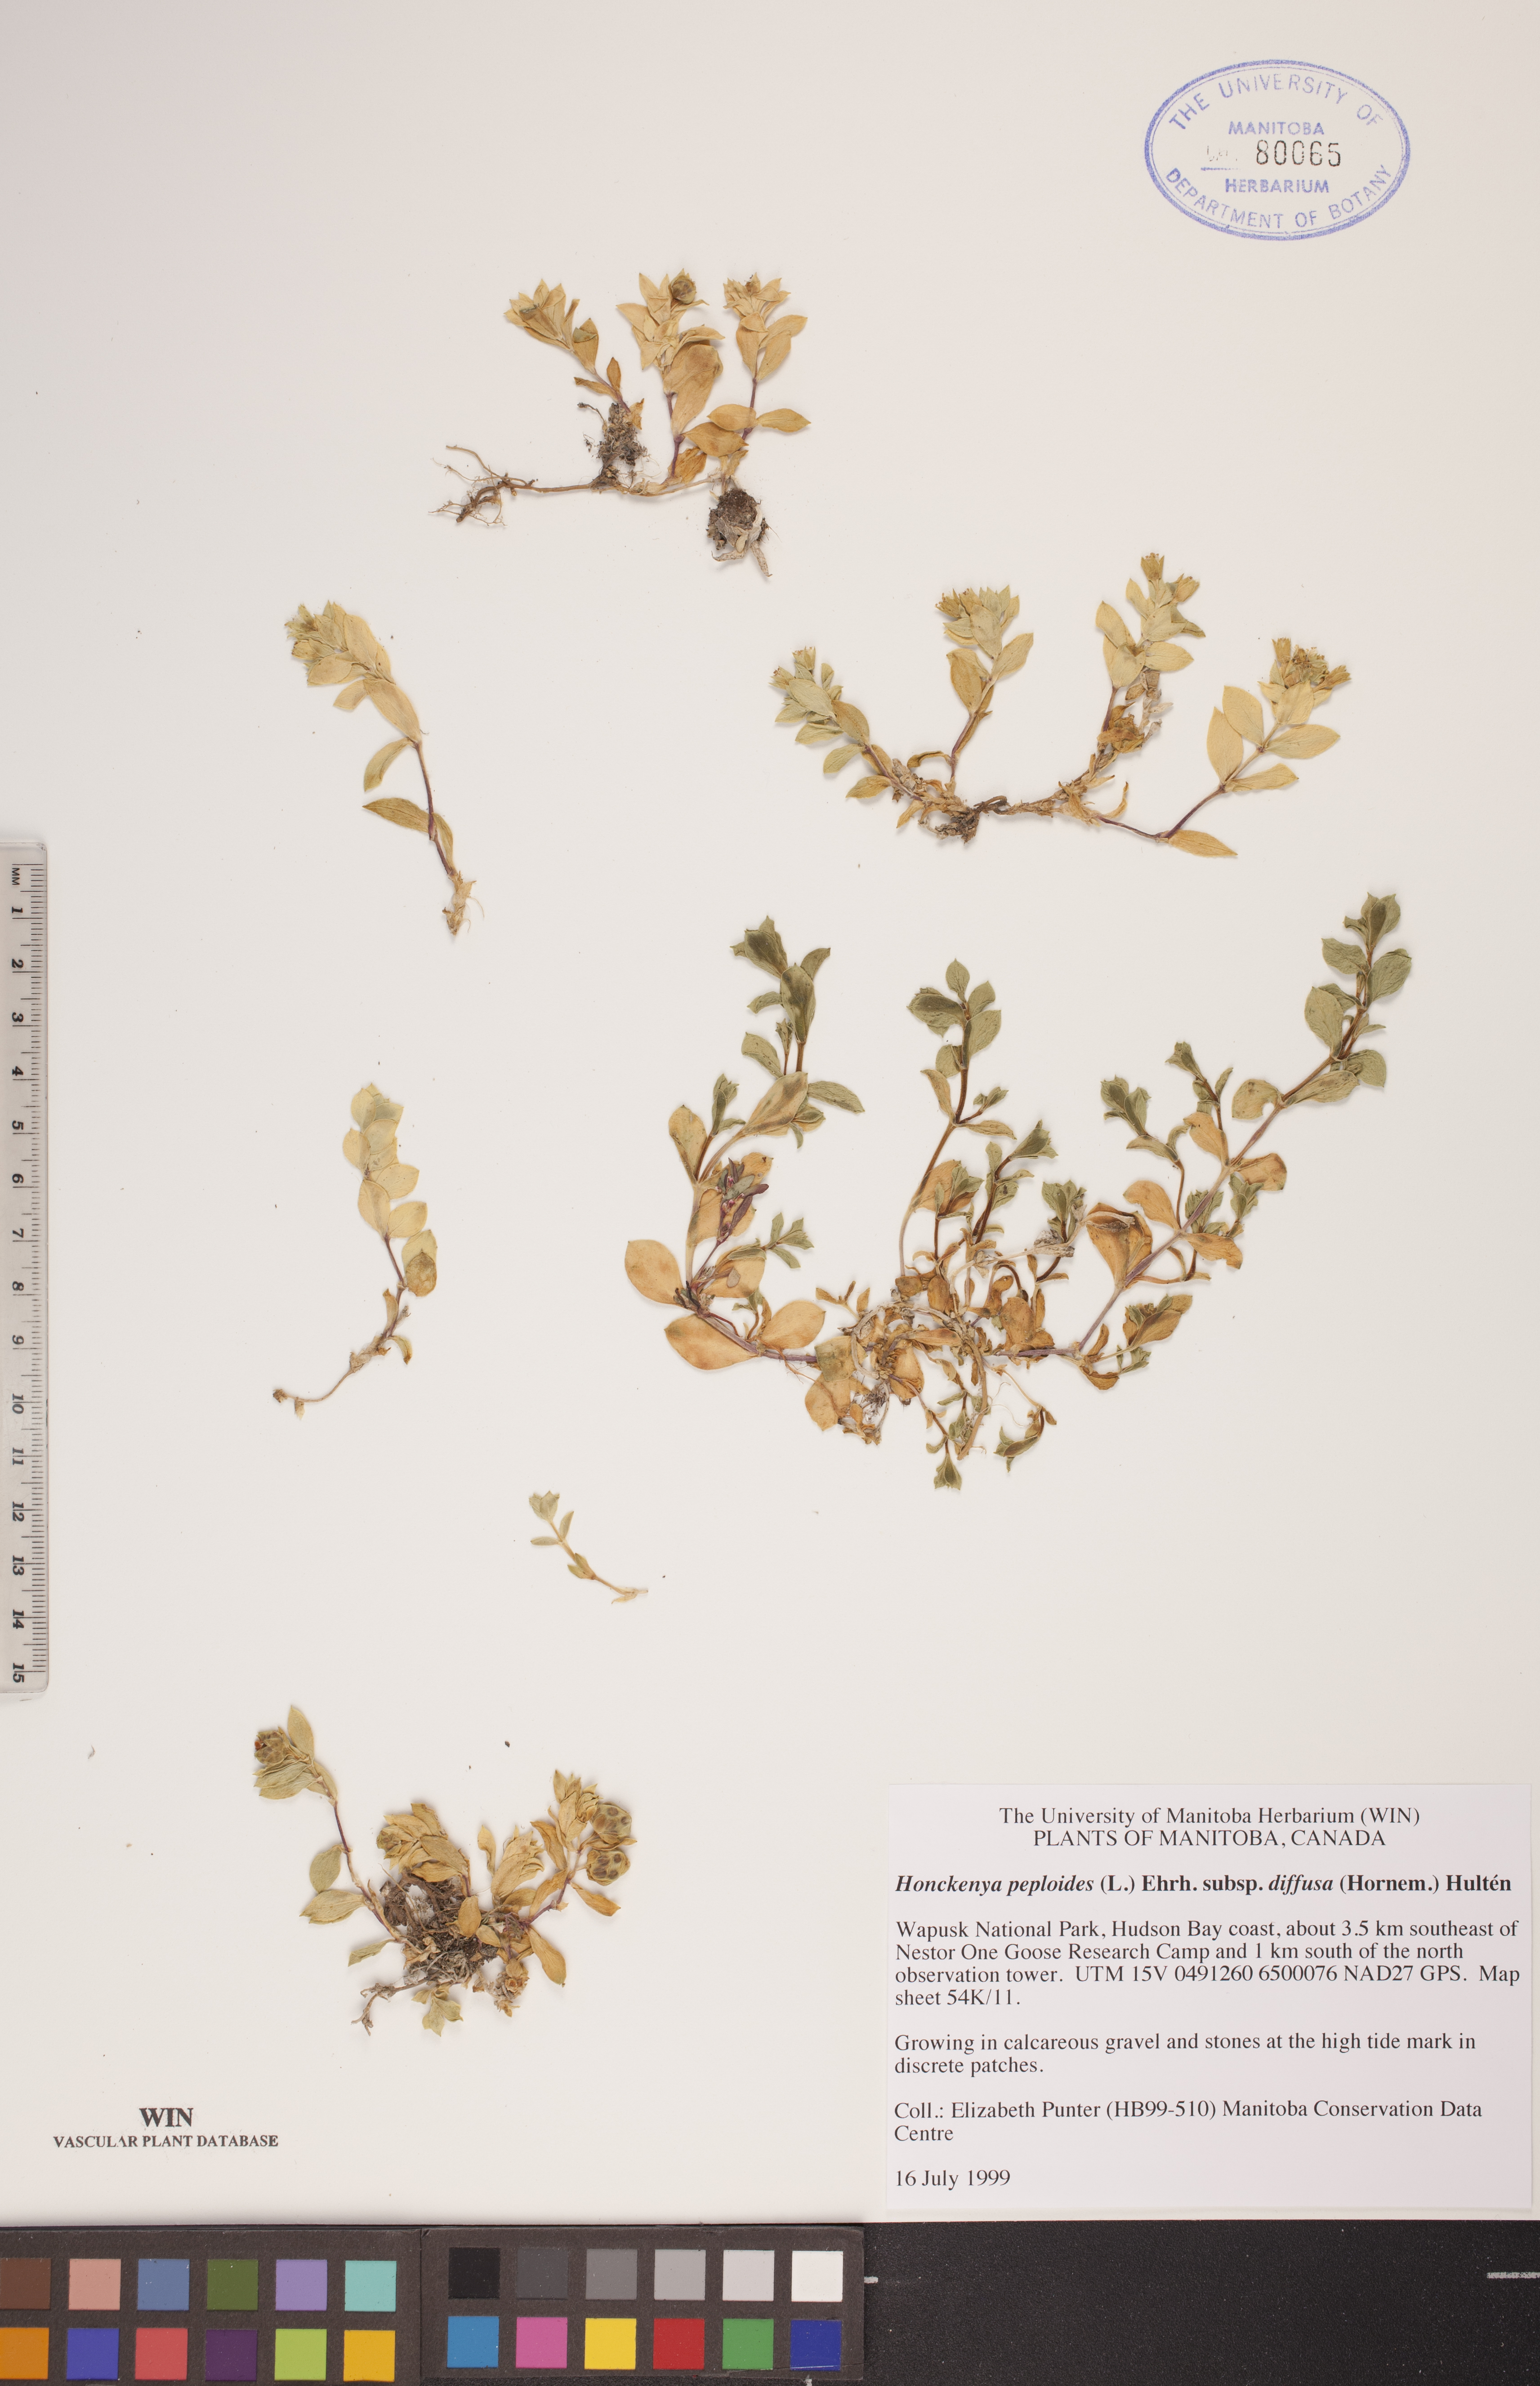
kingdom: Plantae
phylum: Tracheophyta
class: Magnoliopsida
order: Caryophyllales
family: Caryophyllaceae
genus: Honckenya
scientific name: Honckenya peploides
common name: Sea sandwort
